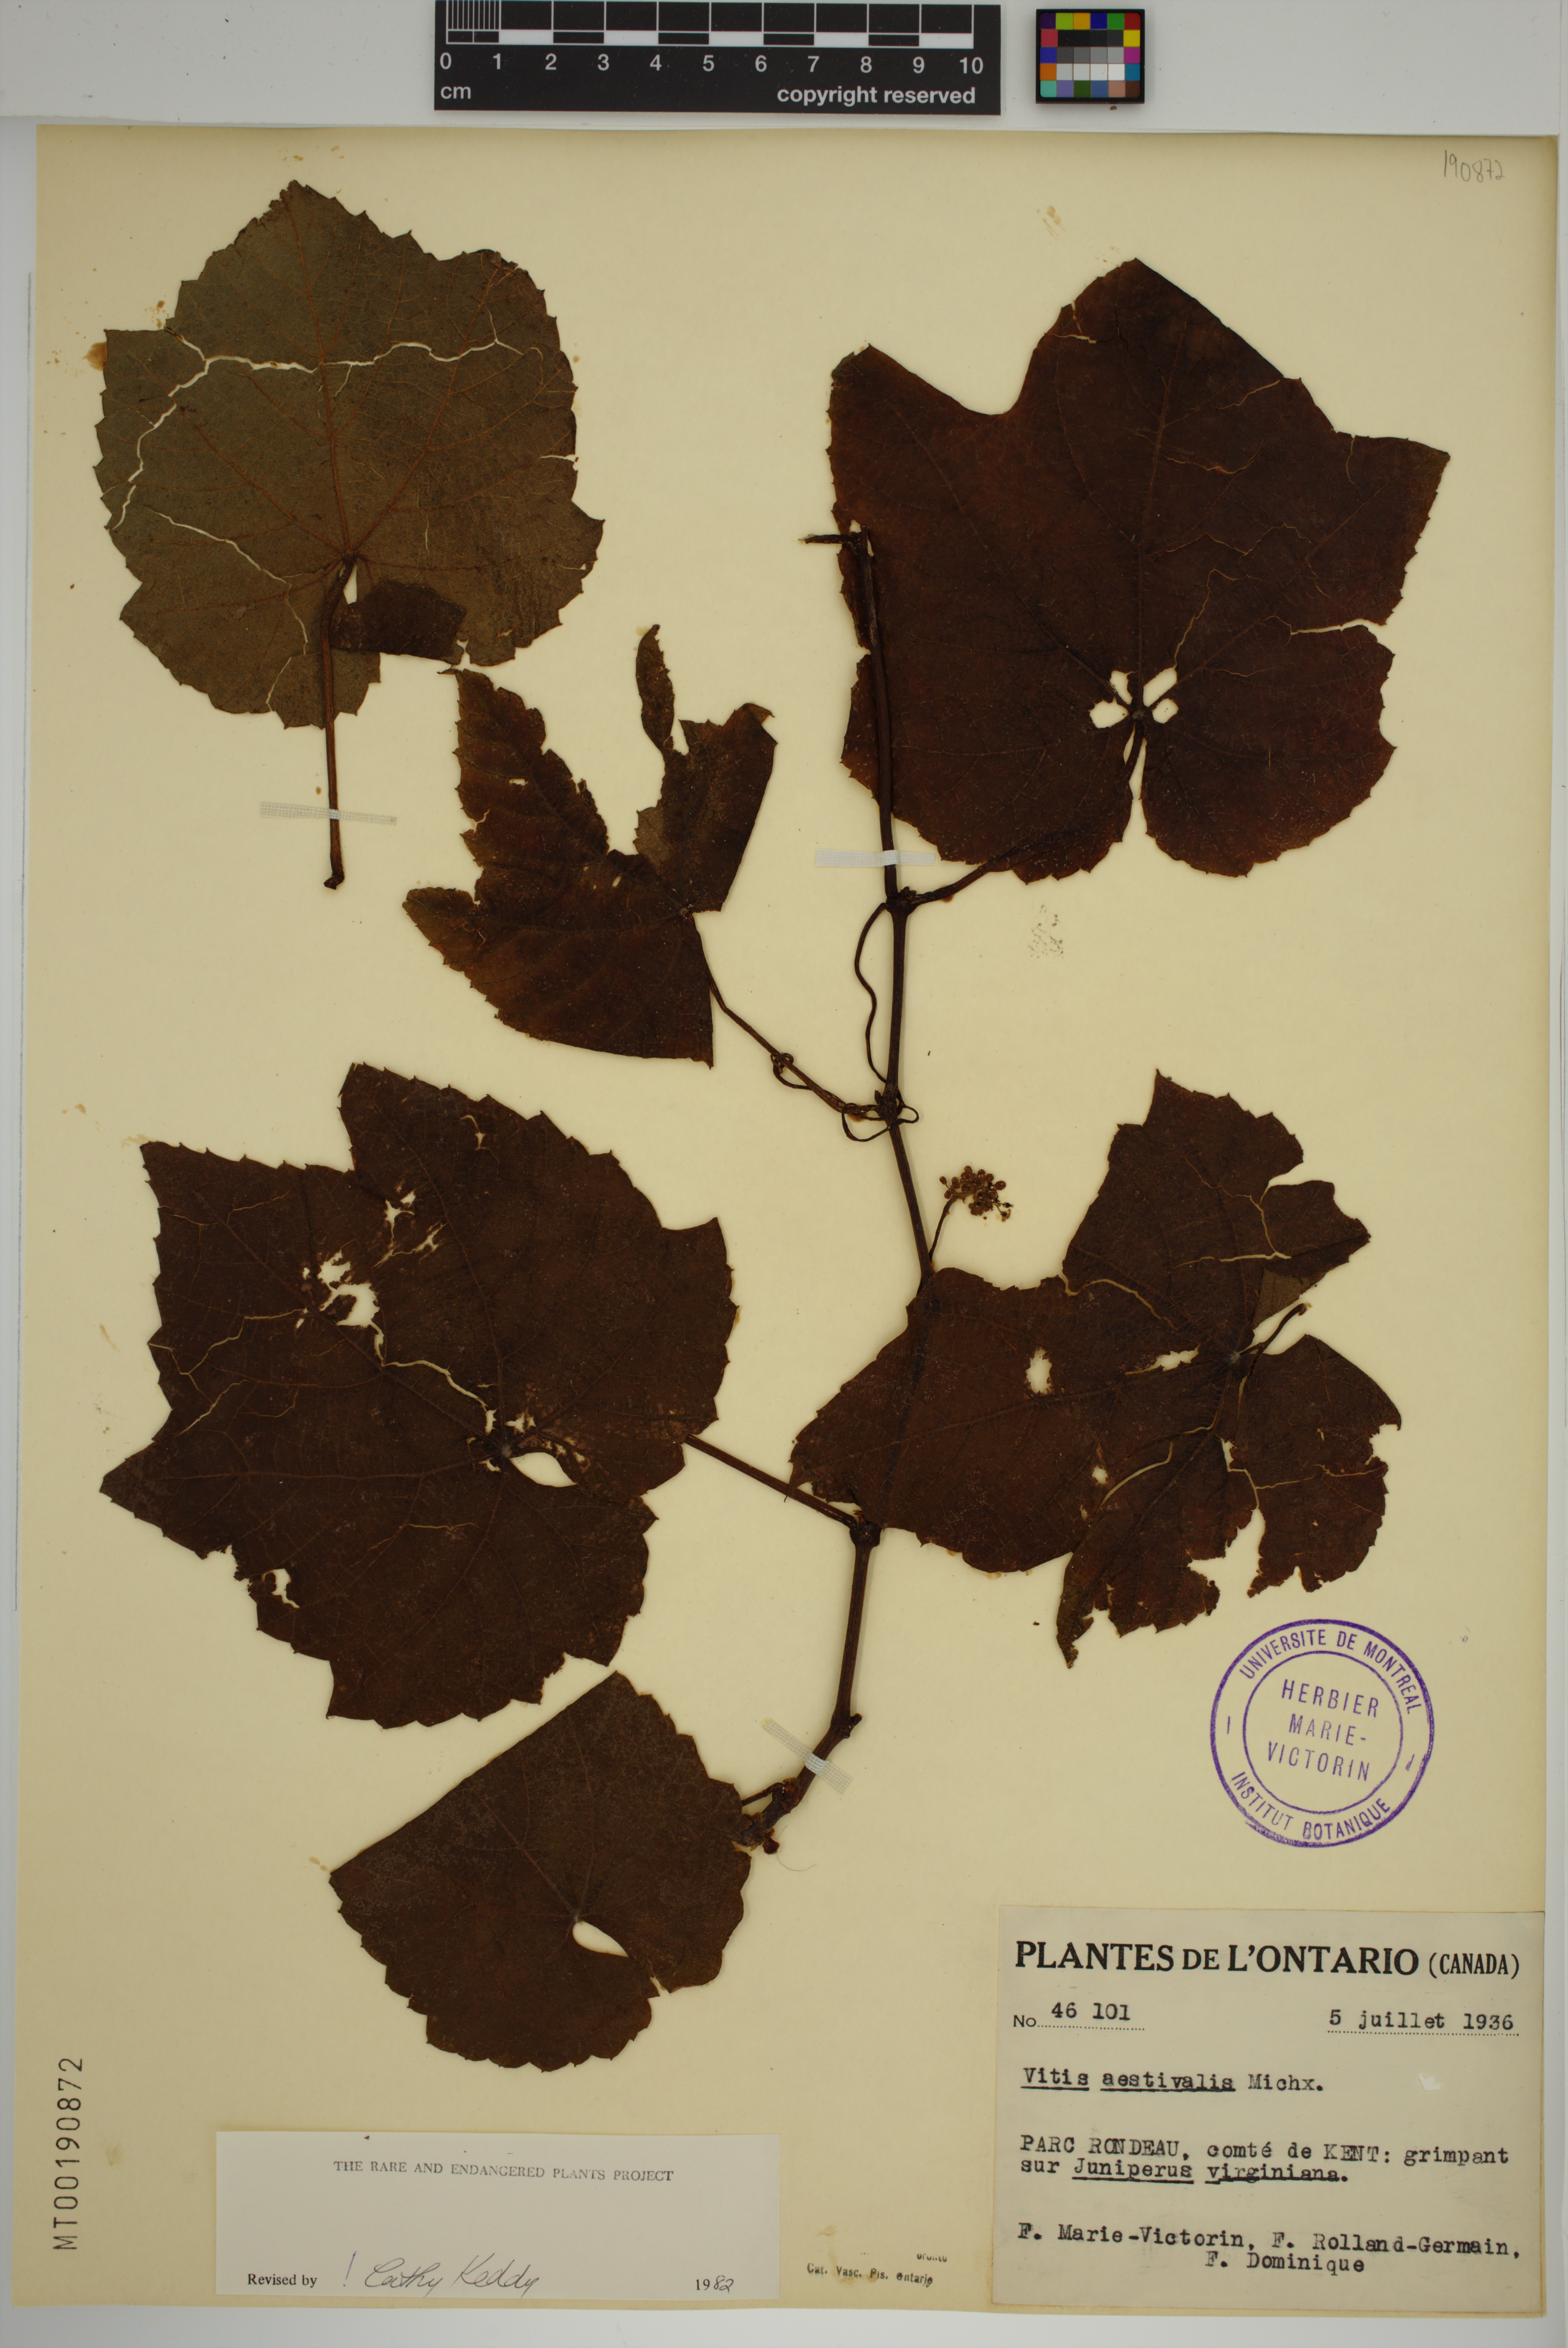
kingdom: Plantae
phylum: Tracheophyta
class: Magnoliopsida
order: Vitales
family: Vitaceae
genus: Vitis
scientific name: Vitis aestivalis
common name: Pigeon grape
